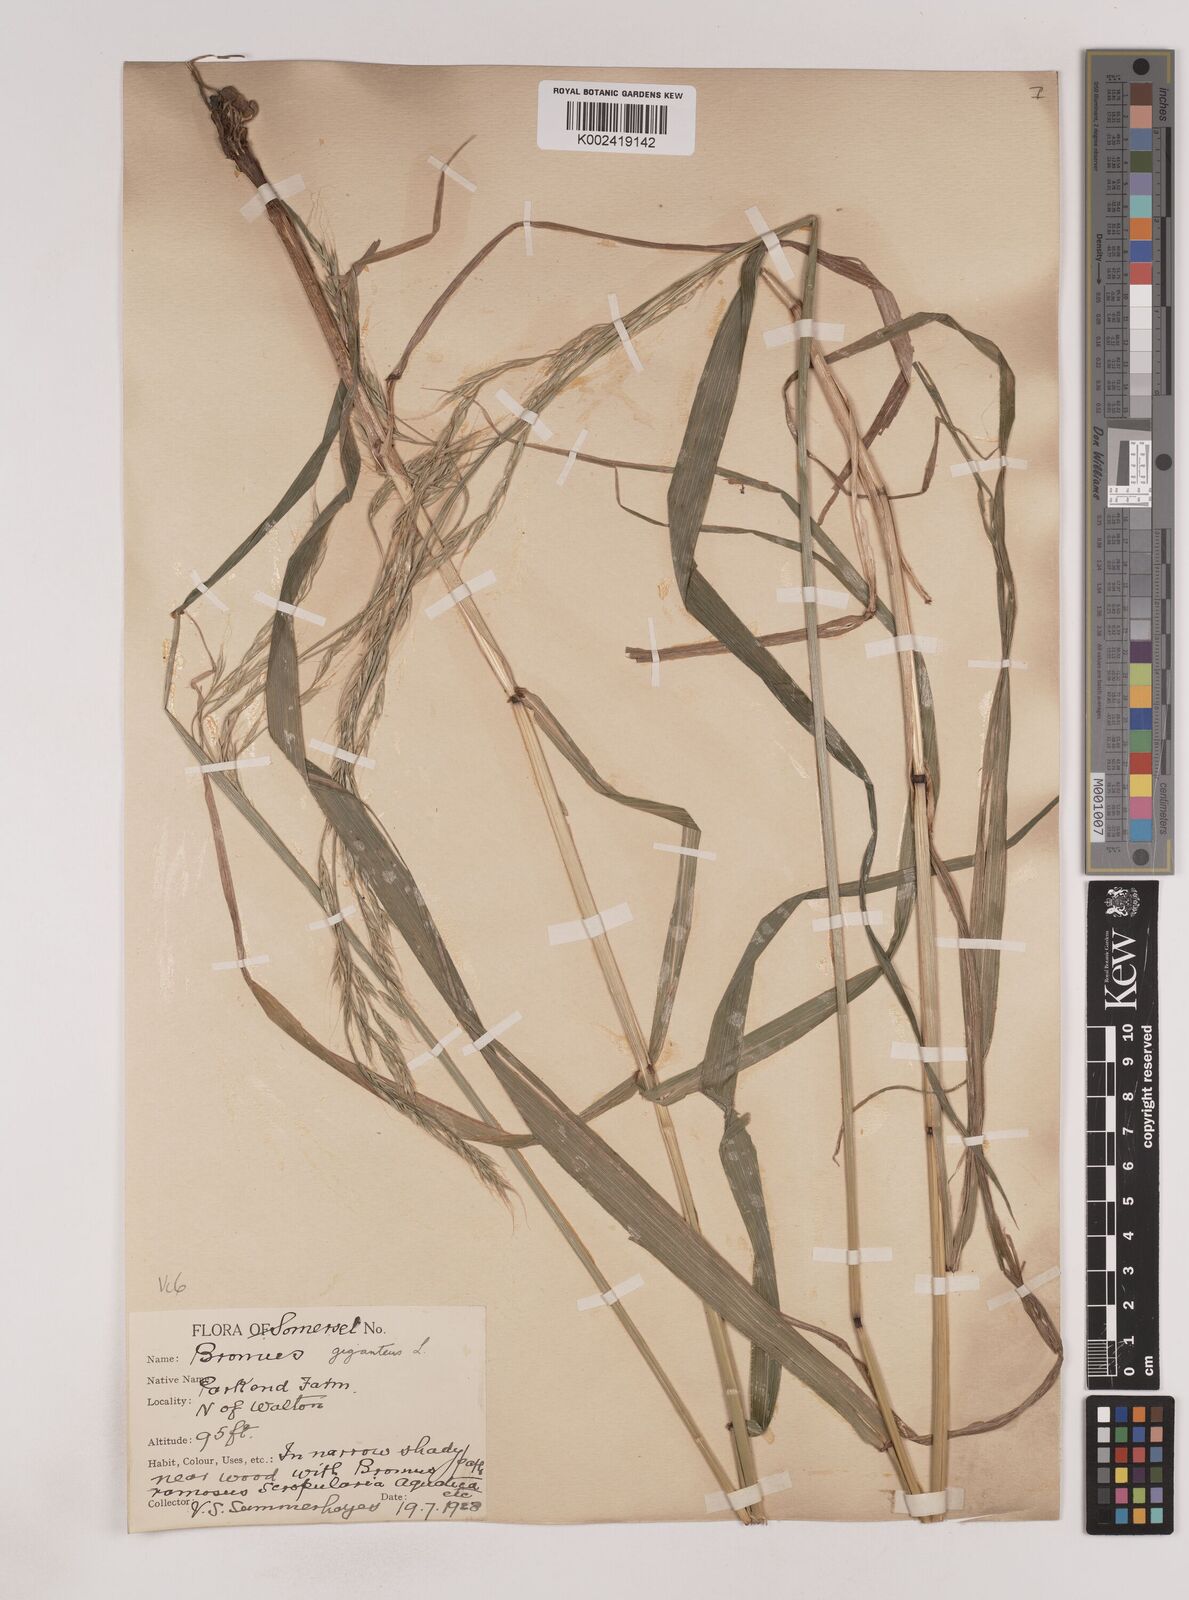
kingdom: Plantae
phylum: Tracheophyta
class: Liliopsida
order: Poales
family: Poaceae
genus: Lolium
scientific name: Lolium giganteum
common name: Giant fescue
